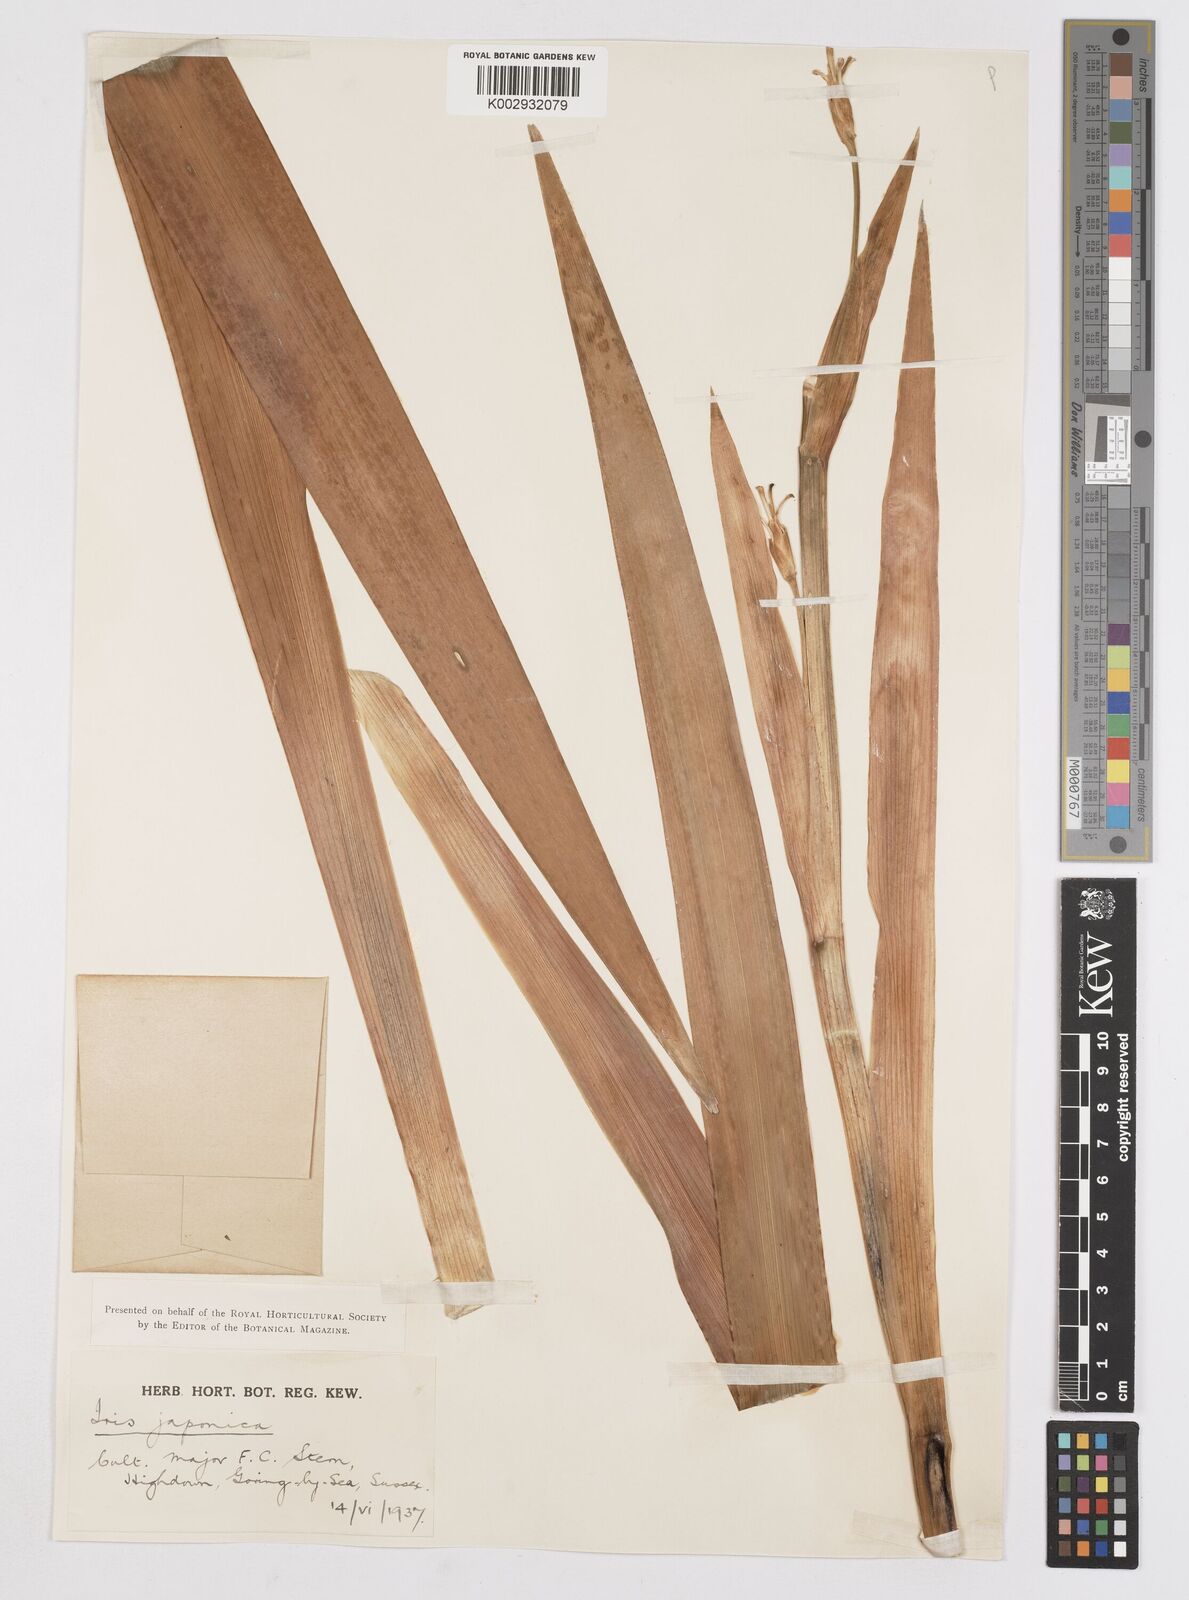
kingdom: Plantae
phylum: Tracheophyta
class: Liliopsida
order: Asparagales
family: Iridaceae
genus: Iris
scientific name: Iris japonica
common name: Butterfly-flower
